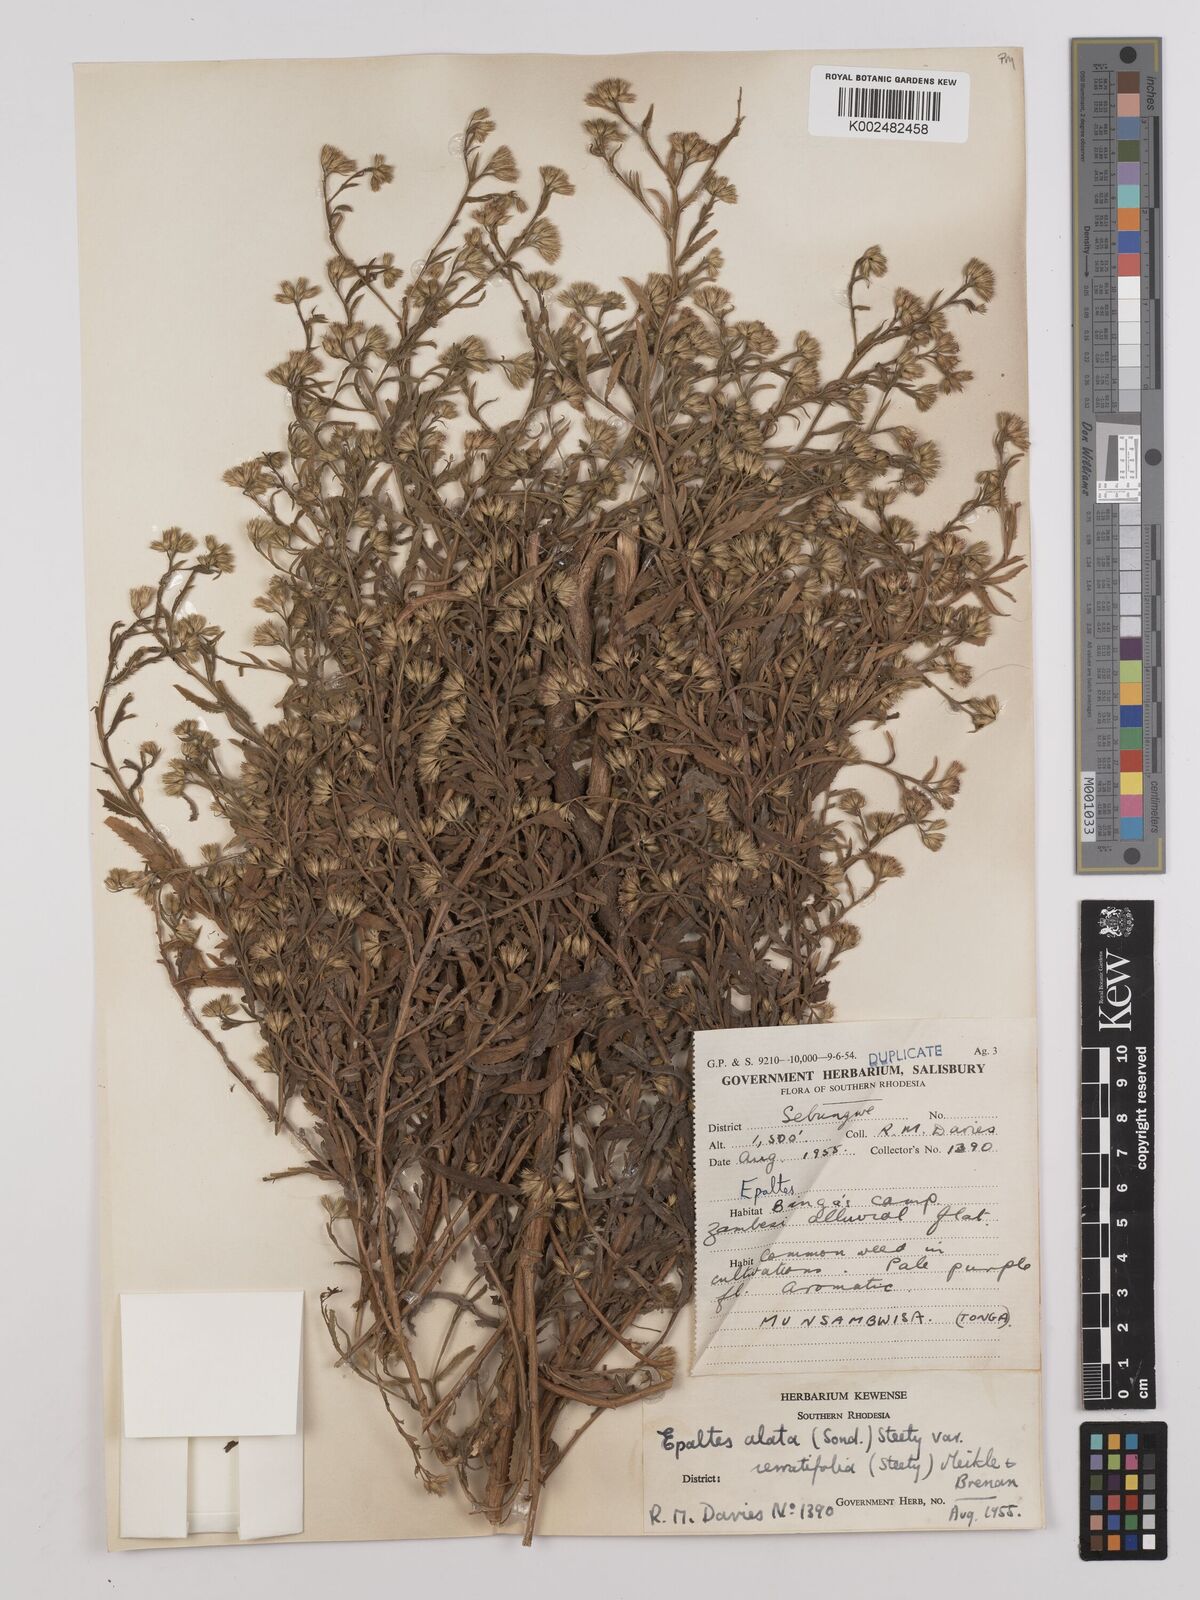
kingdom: Plantae
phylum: Tracheophyta
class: Magnoliopsida
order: Asterales
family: Asteraceae
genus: Litogyne
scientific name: Litogyne gariepina
